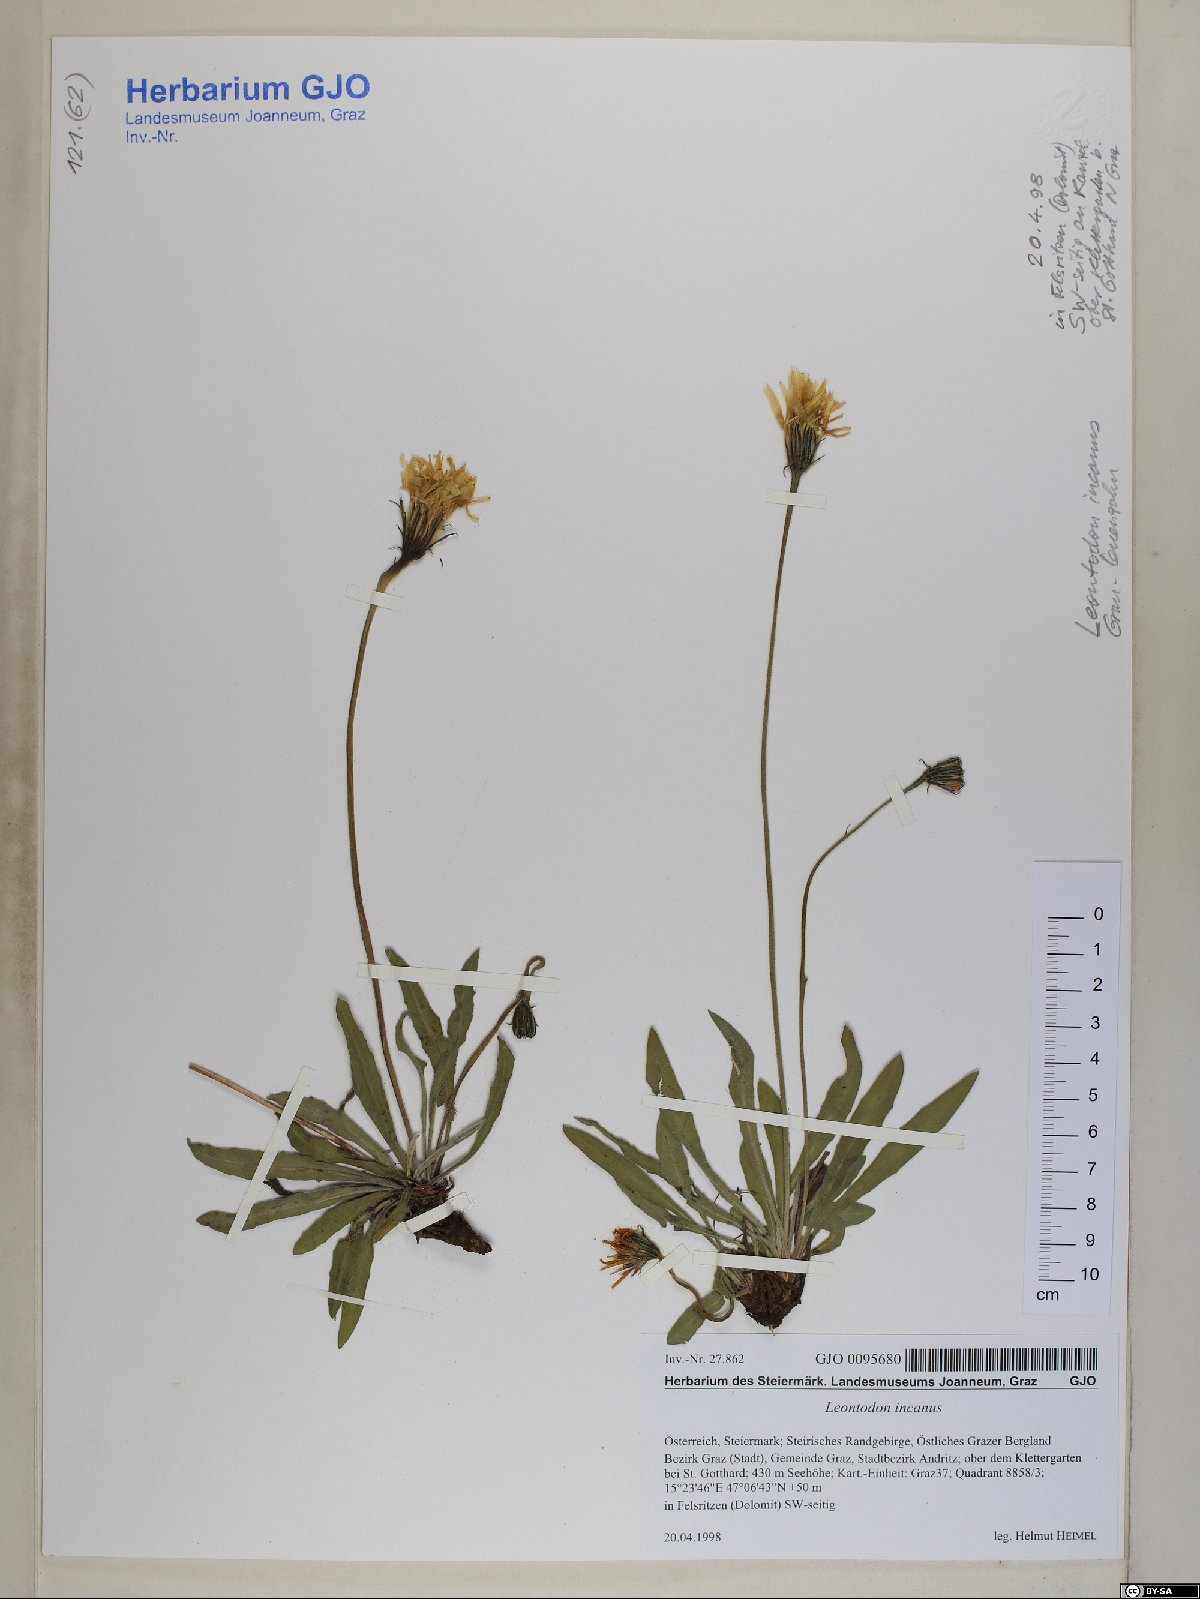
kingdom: Plantae
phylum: Tracheophyta
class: Magnoliopsida
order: Asterales
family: Asteraceae
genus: Leontodon
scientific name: Leontodon incanus
